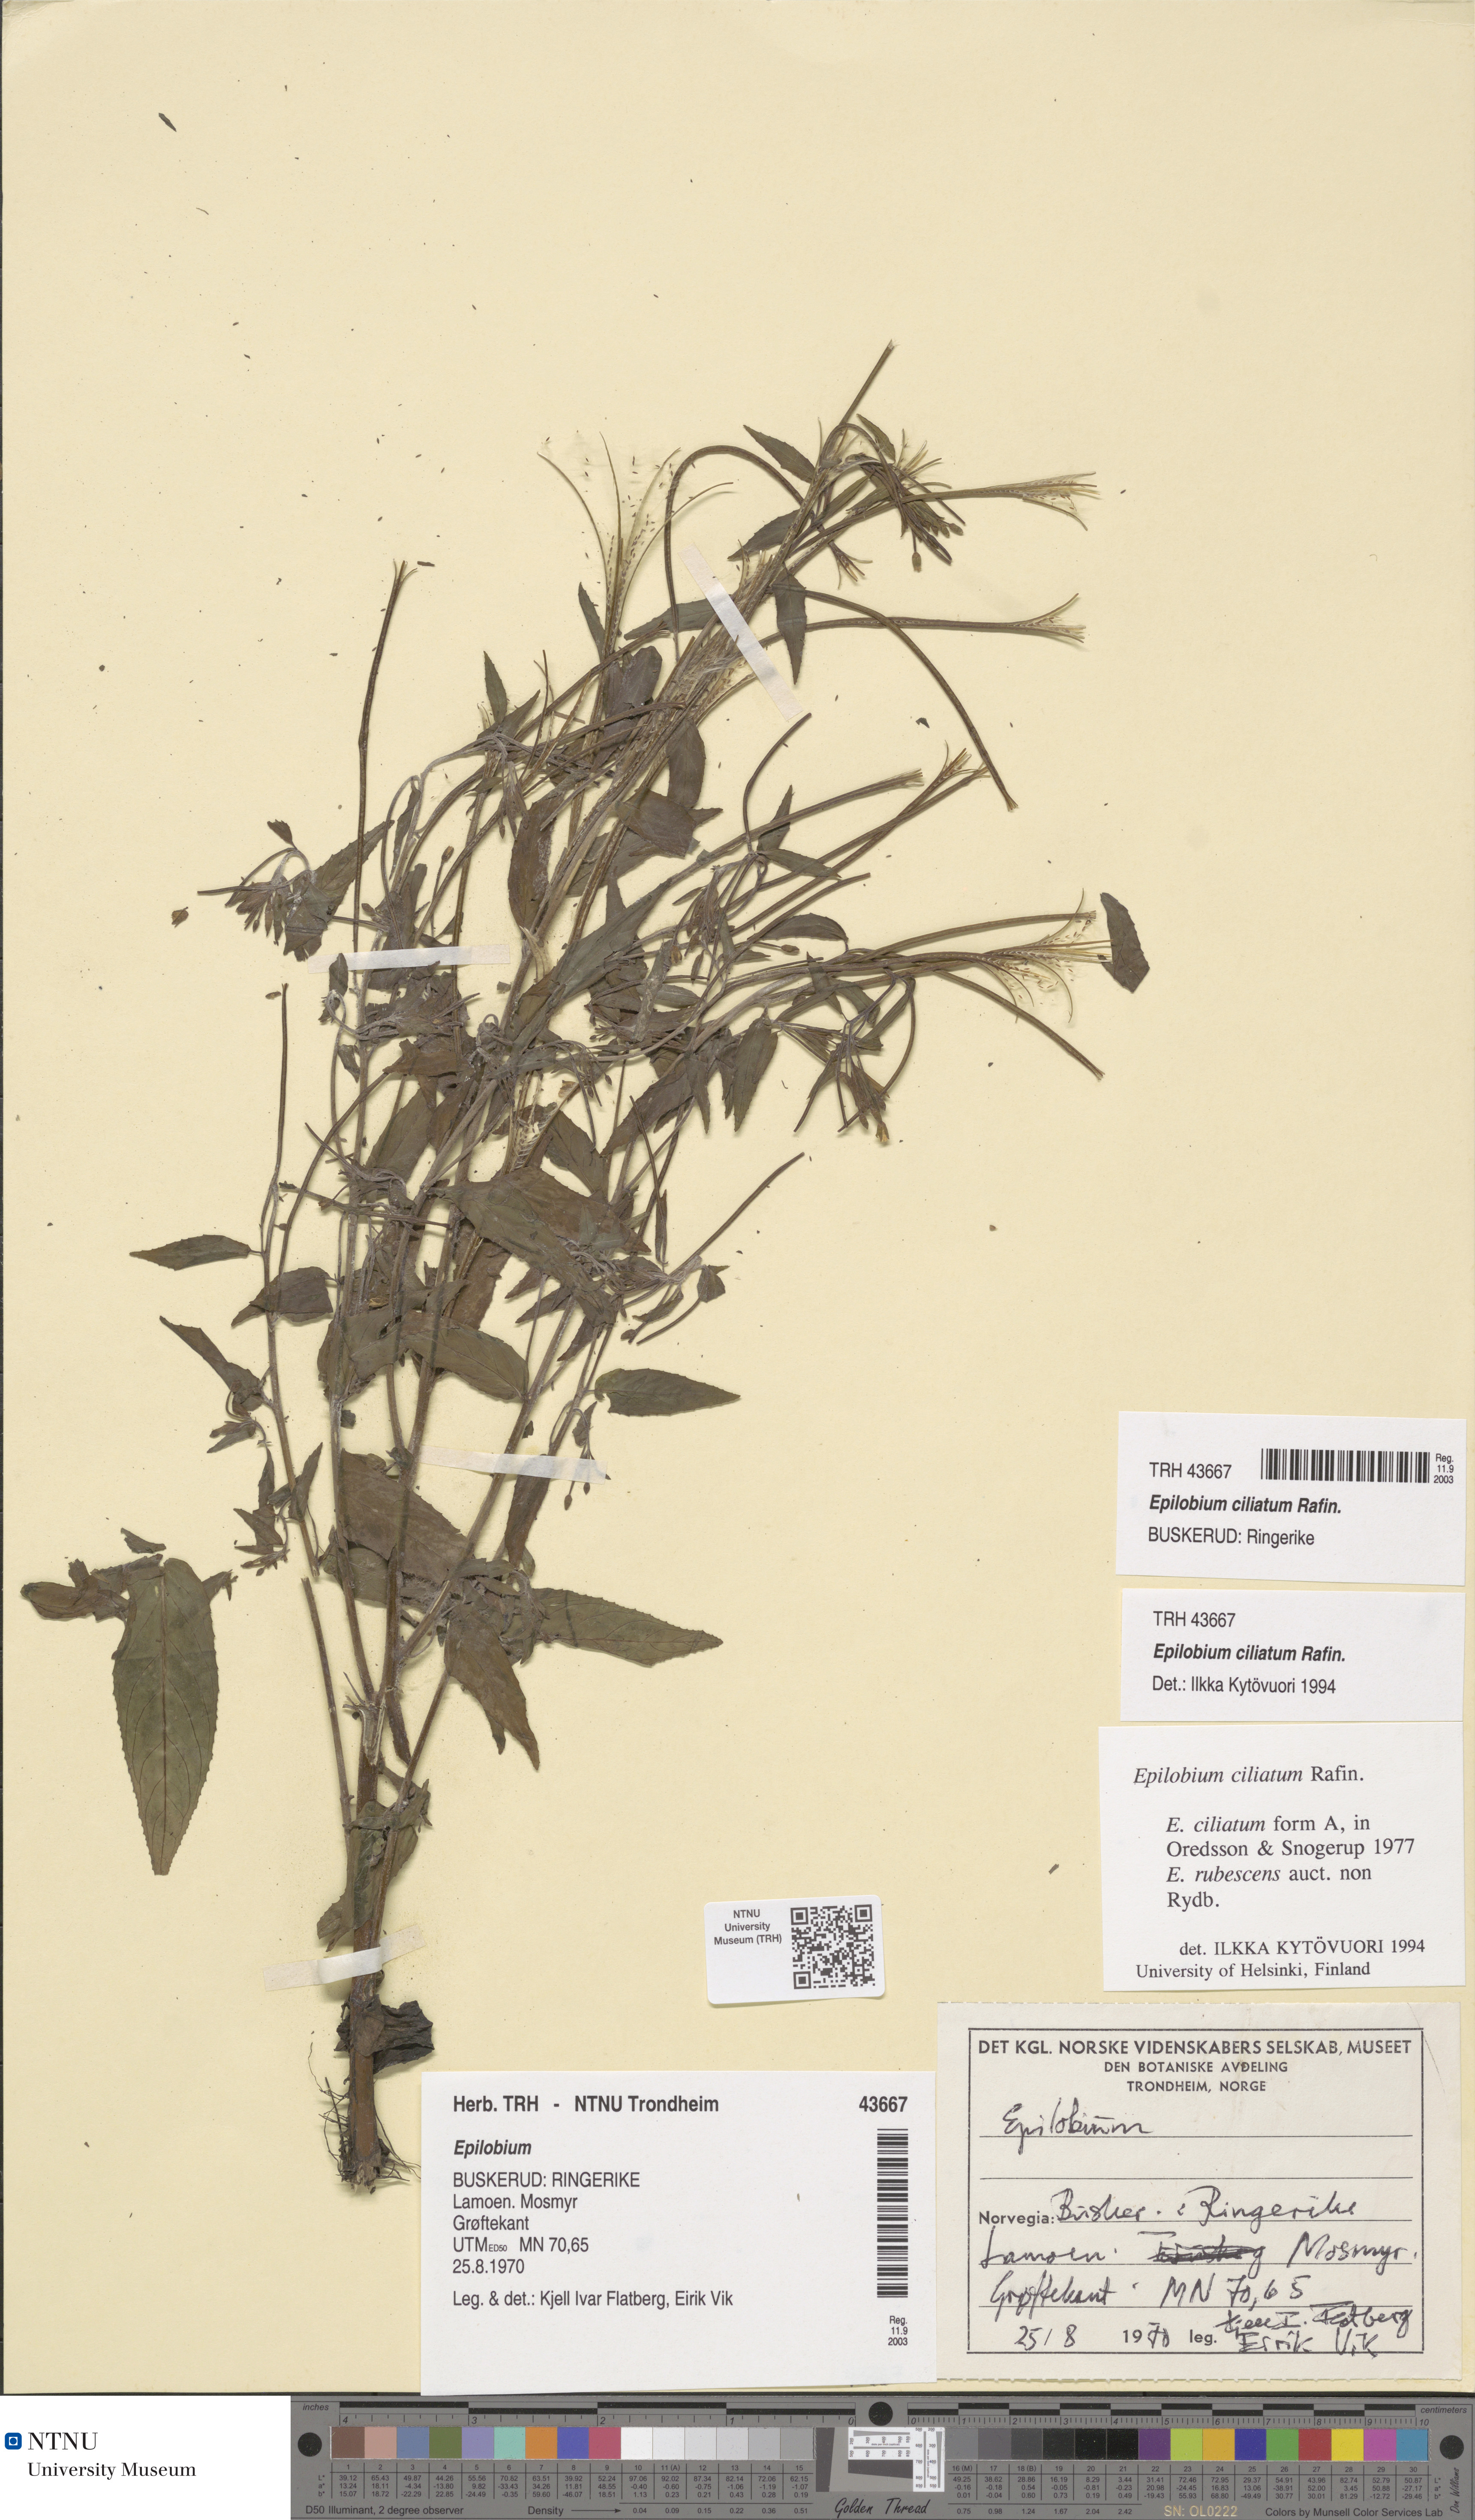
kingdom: Plantae
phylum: Tracheophyta
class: Magnoliopsida
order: Myrtales
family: Onagraceae
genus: Epilobium
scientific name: Epilobium ciliatum
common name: American willowherb
